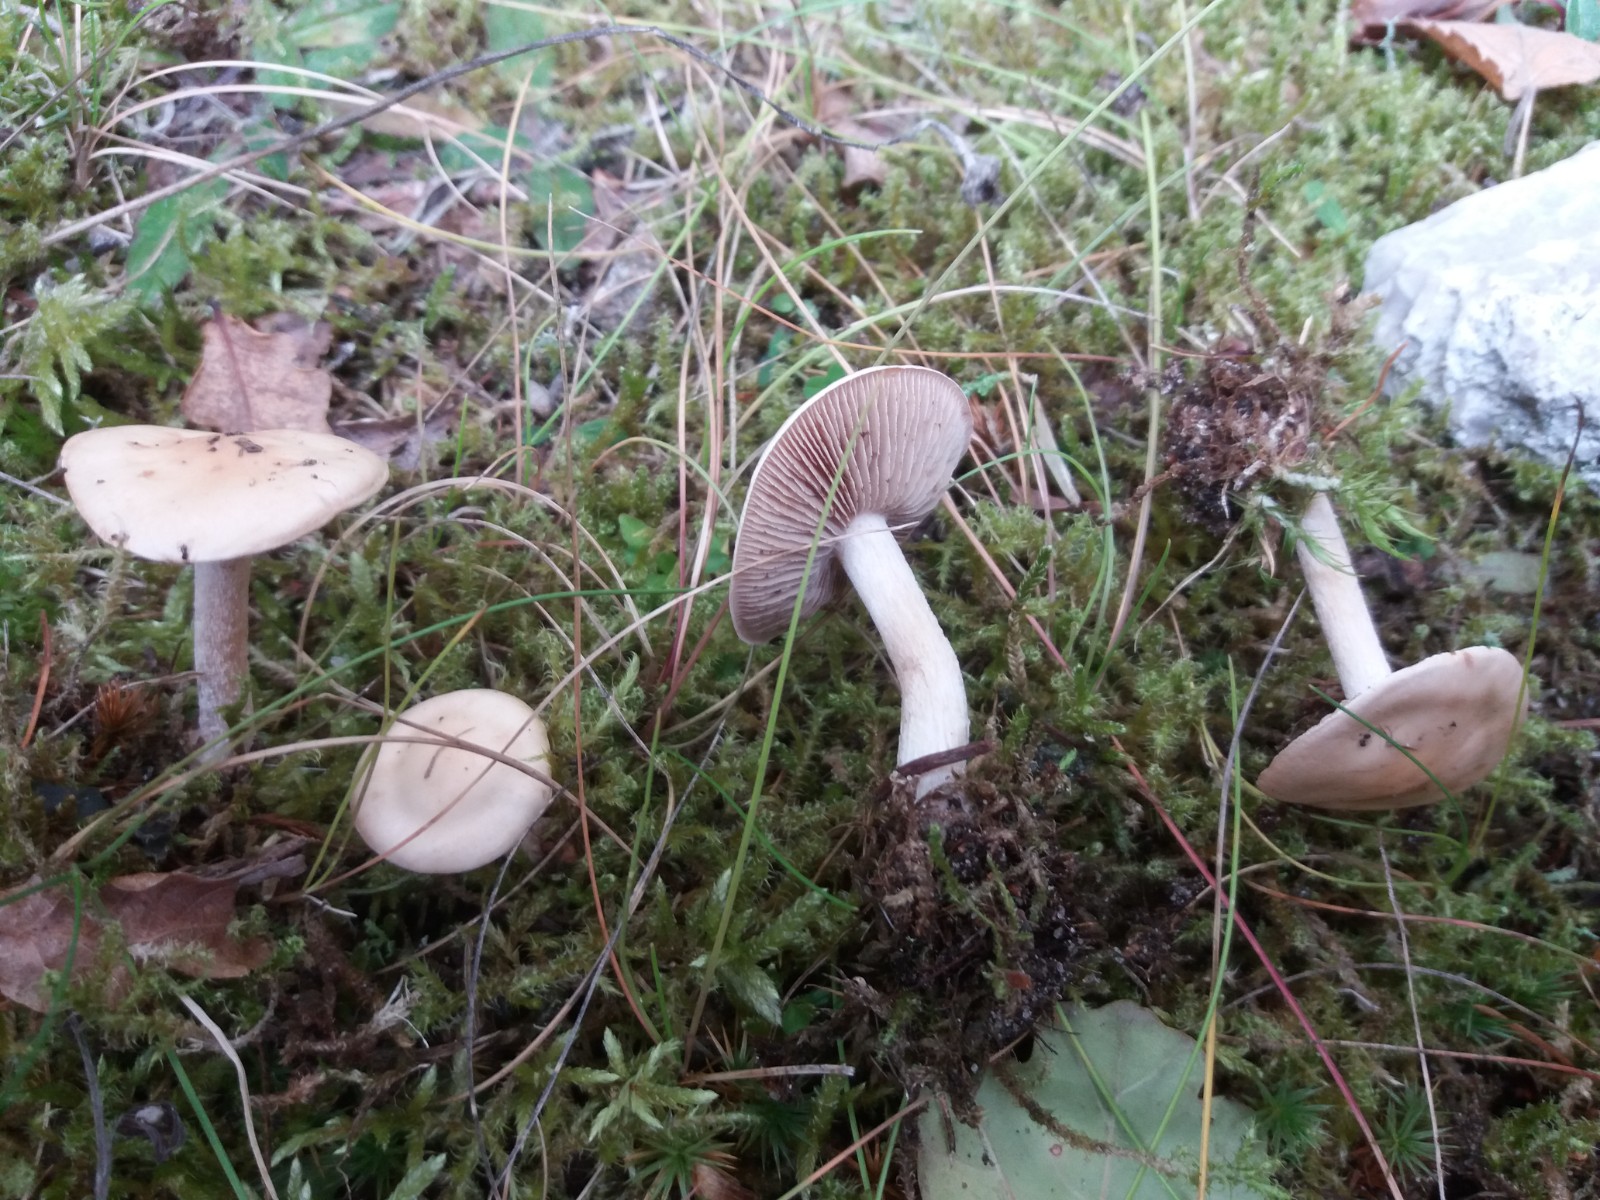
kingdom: Fungi
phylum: Basidiomycota
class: Agaricomycetes
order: Agaricales
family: Hymenogastraceae
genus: Hebeloma
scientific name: Hebeloma
